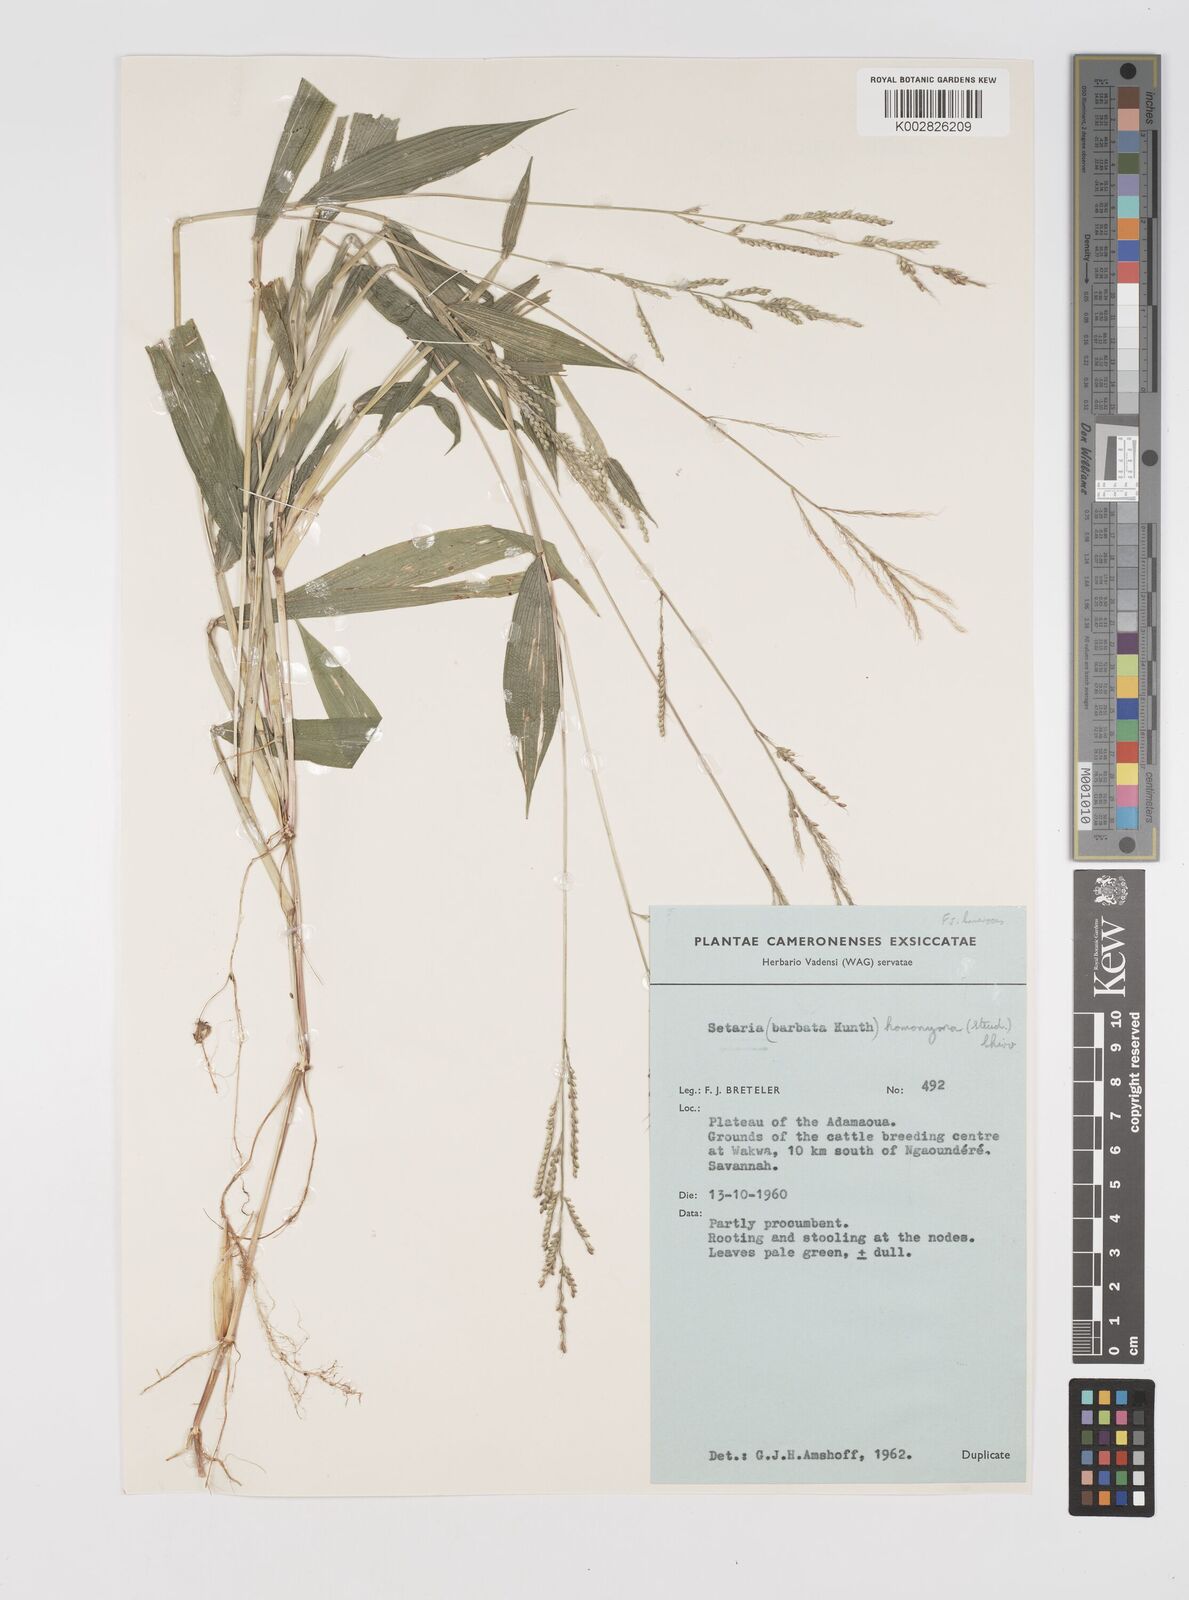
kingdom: Plantae
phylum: Tracheophyta
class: Liliopsida
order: Poales
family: Poaceae
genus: Setaria
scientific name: Setaria homonyma
